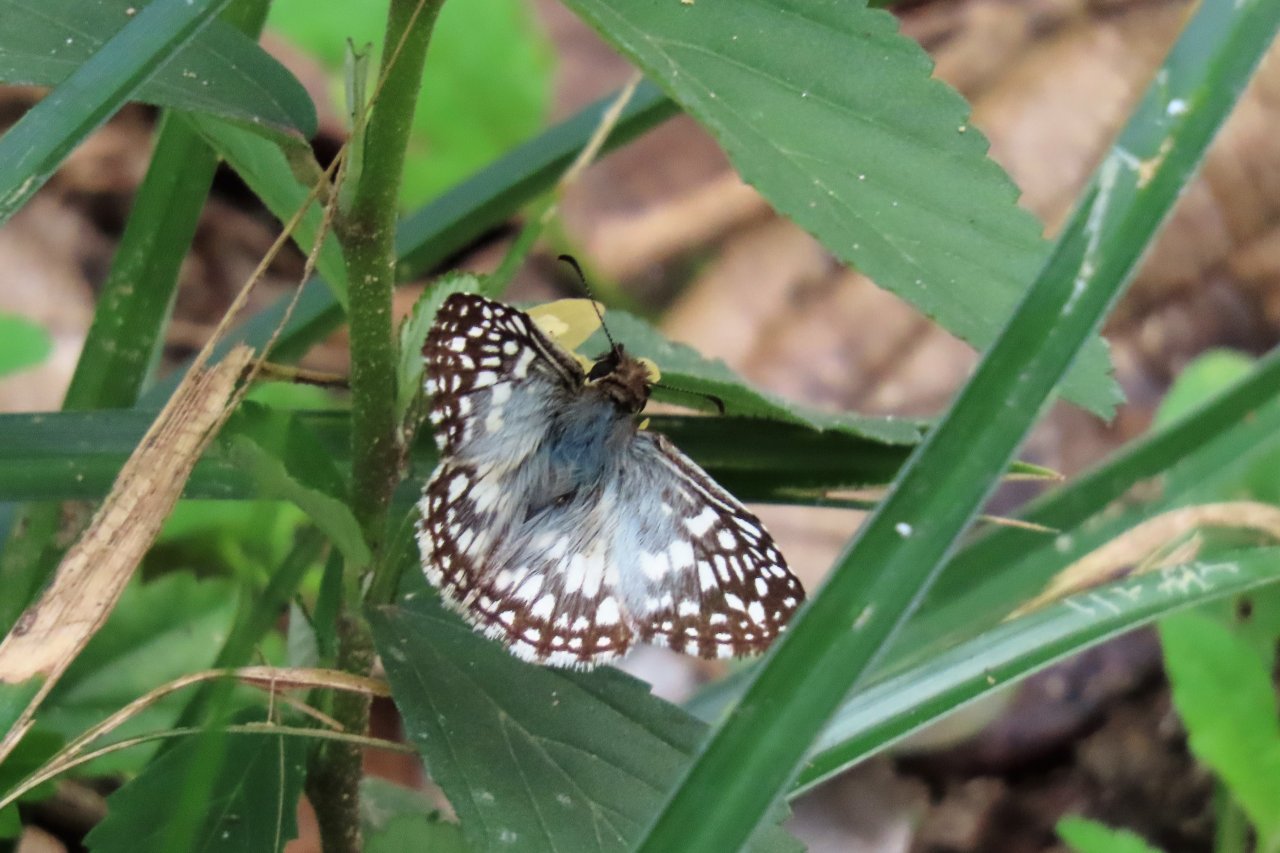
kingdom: Animalia
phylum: Arthropoda
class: Insecta
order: Lepidoptera
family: Hesperiidae
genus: Pyrgus
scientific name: Pyrgus oileus
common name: Tropical Checkered-Skipper
